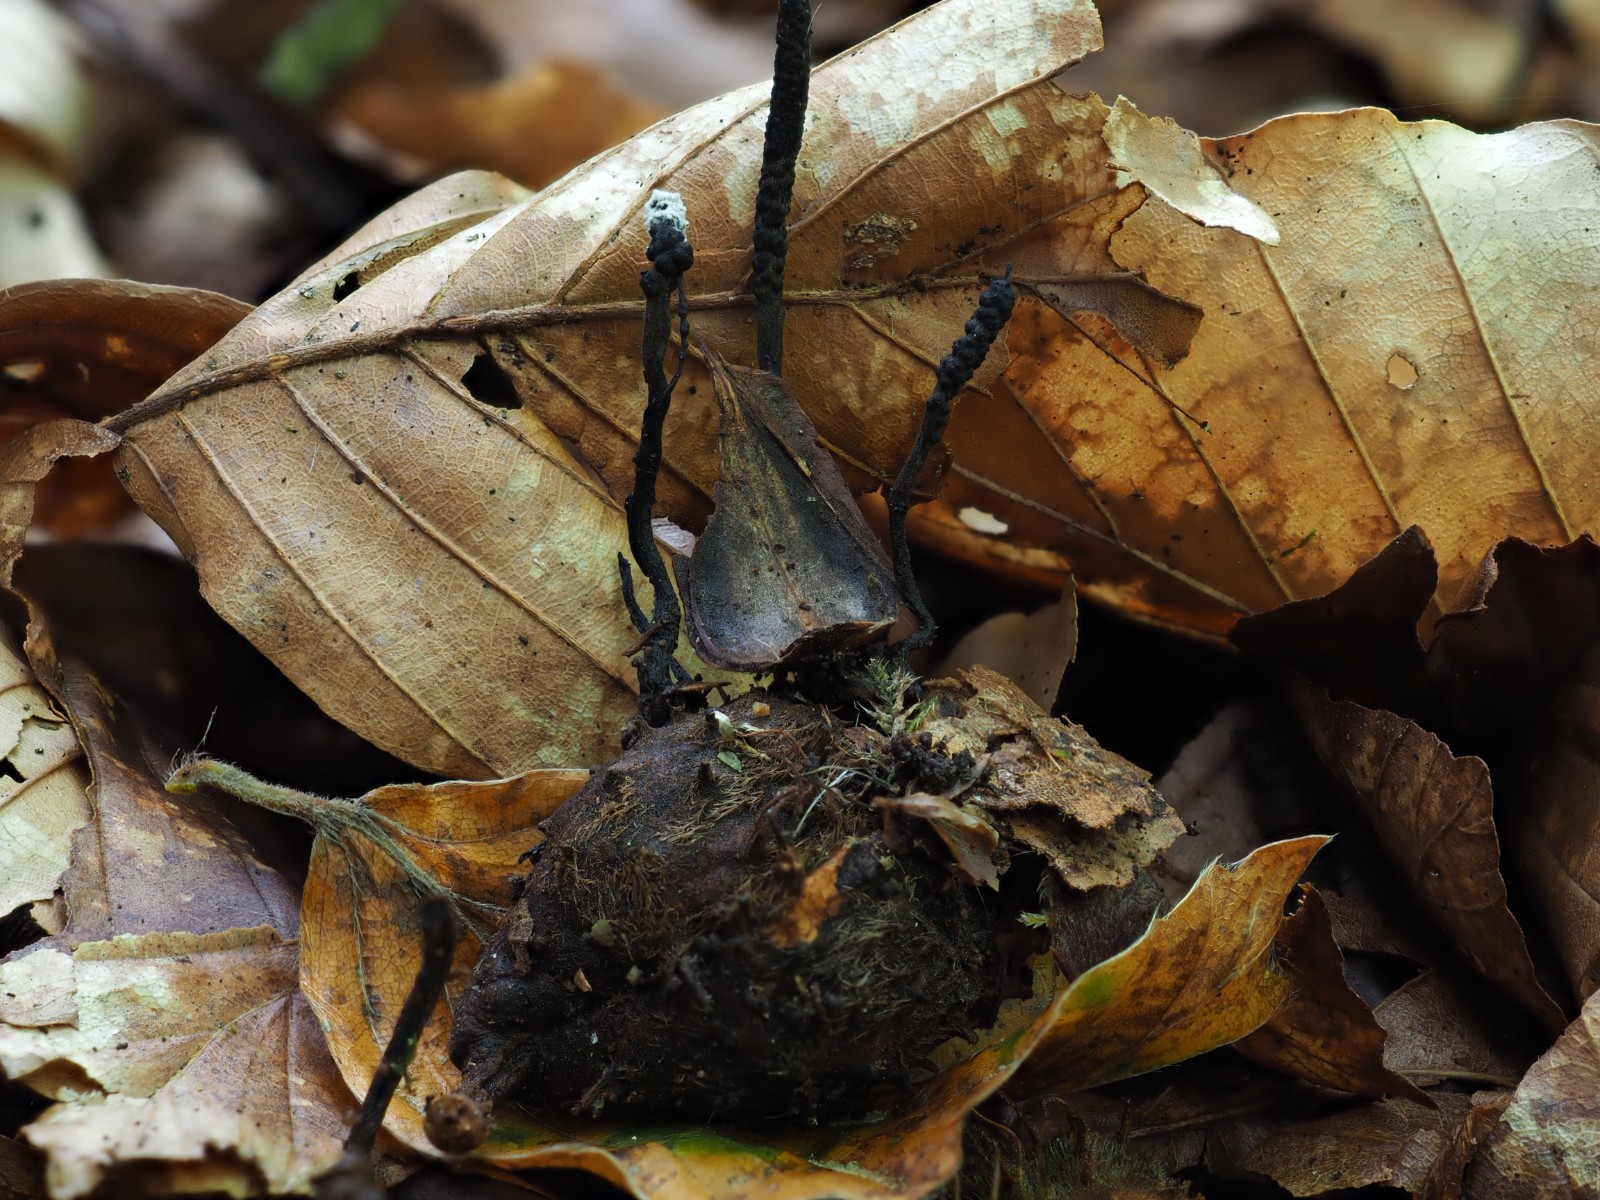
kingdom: Fungi
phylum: Ascomycota
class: Sordariomycetes
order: Xylariales
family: Xylariaceae
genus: Xylaria
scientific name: Xylaria carpophila
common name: bogskål-stødsvamp
